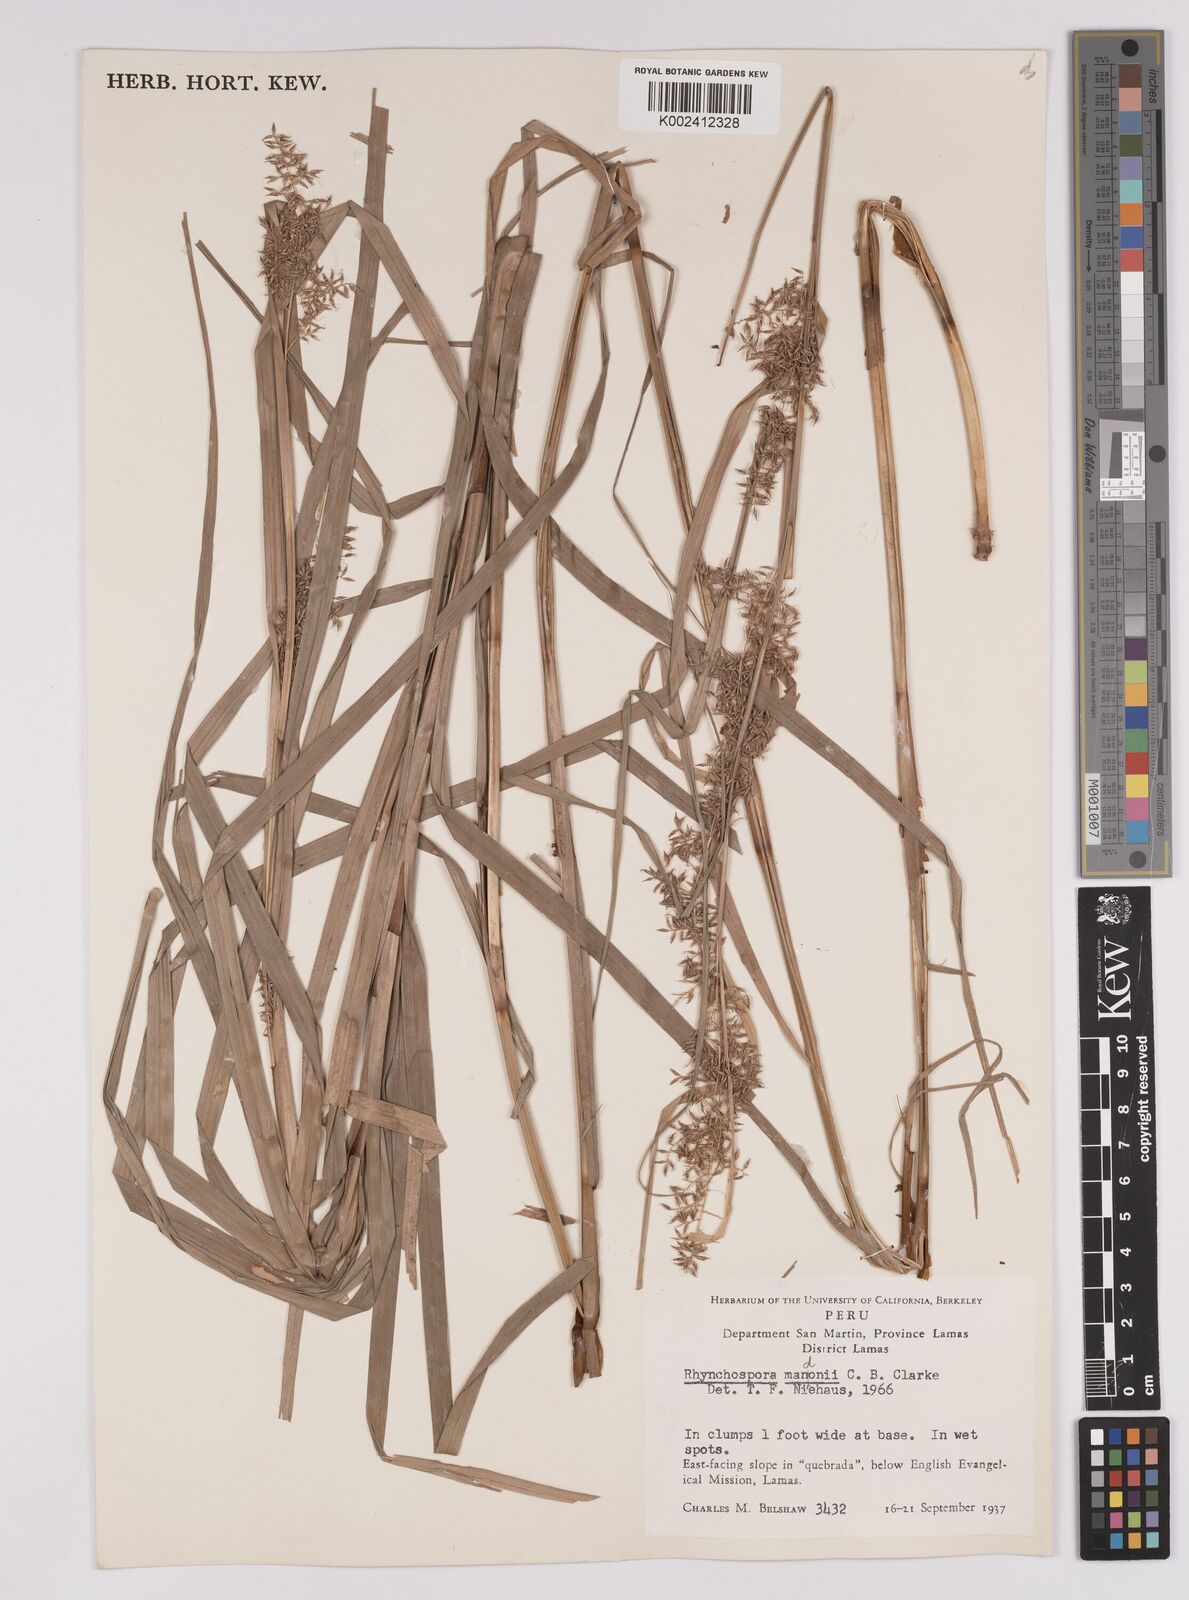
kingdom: Plantae
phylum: Tracheophyta
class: Liliopsida
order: Poales
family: Cyperaceae
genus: Rhynchospora
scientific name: Rhynchospora mandonii
